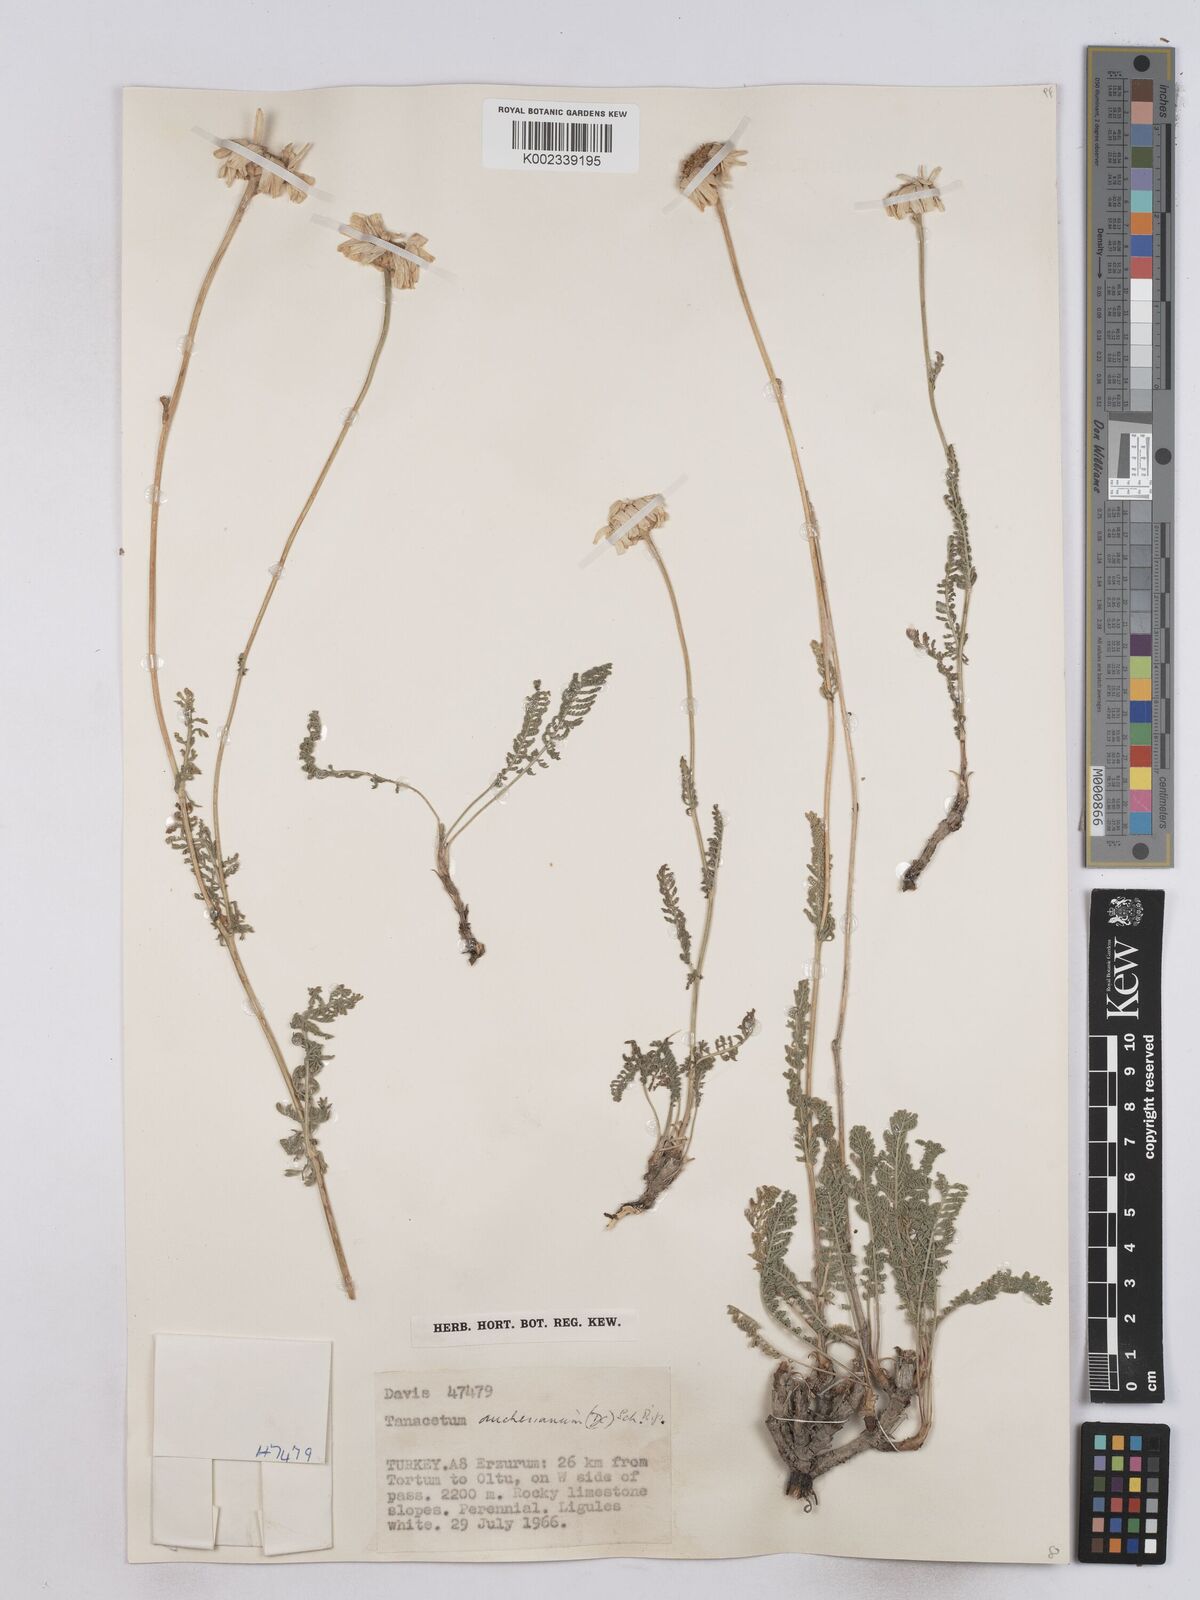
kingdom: Plantae
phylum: Tracheophyta
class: Magnoliopsida
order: Asterales
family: Asteraceae
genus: Tanacetum
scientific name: Tanacetum aucherianum
